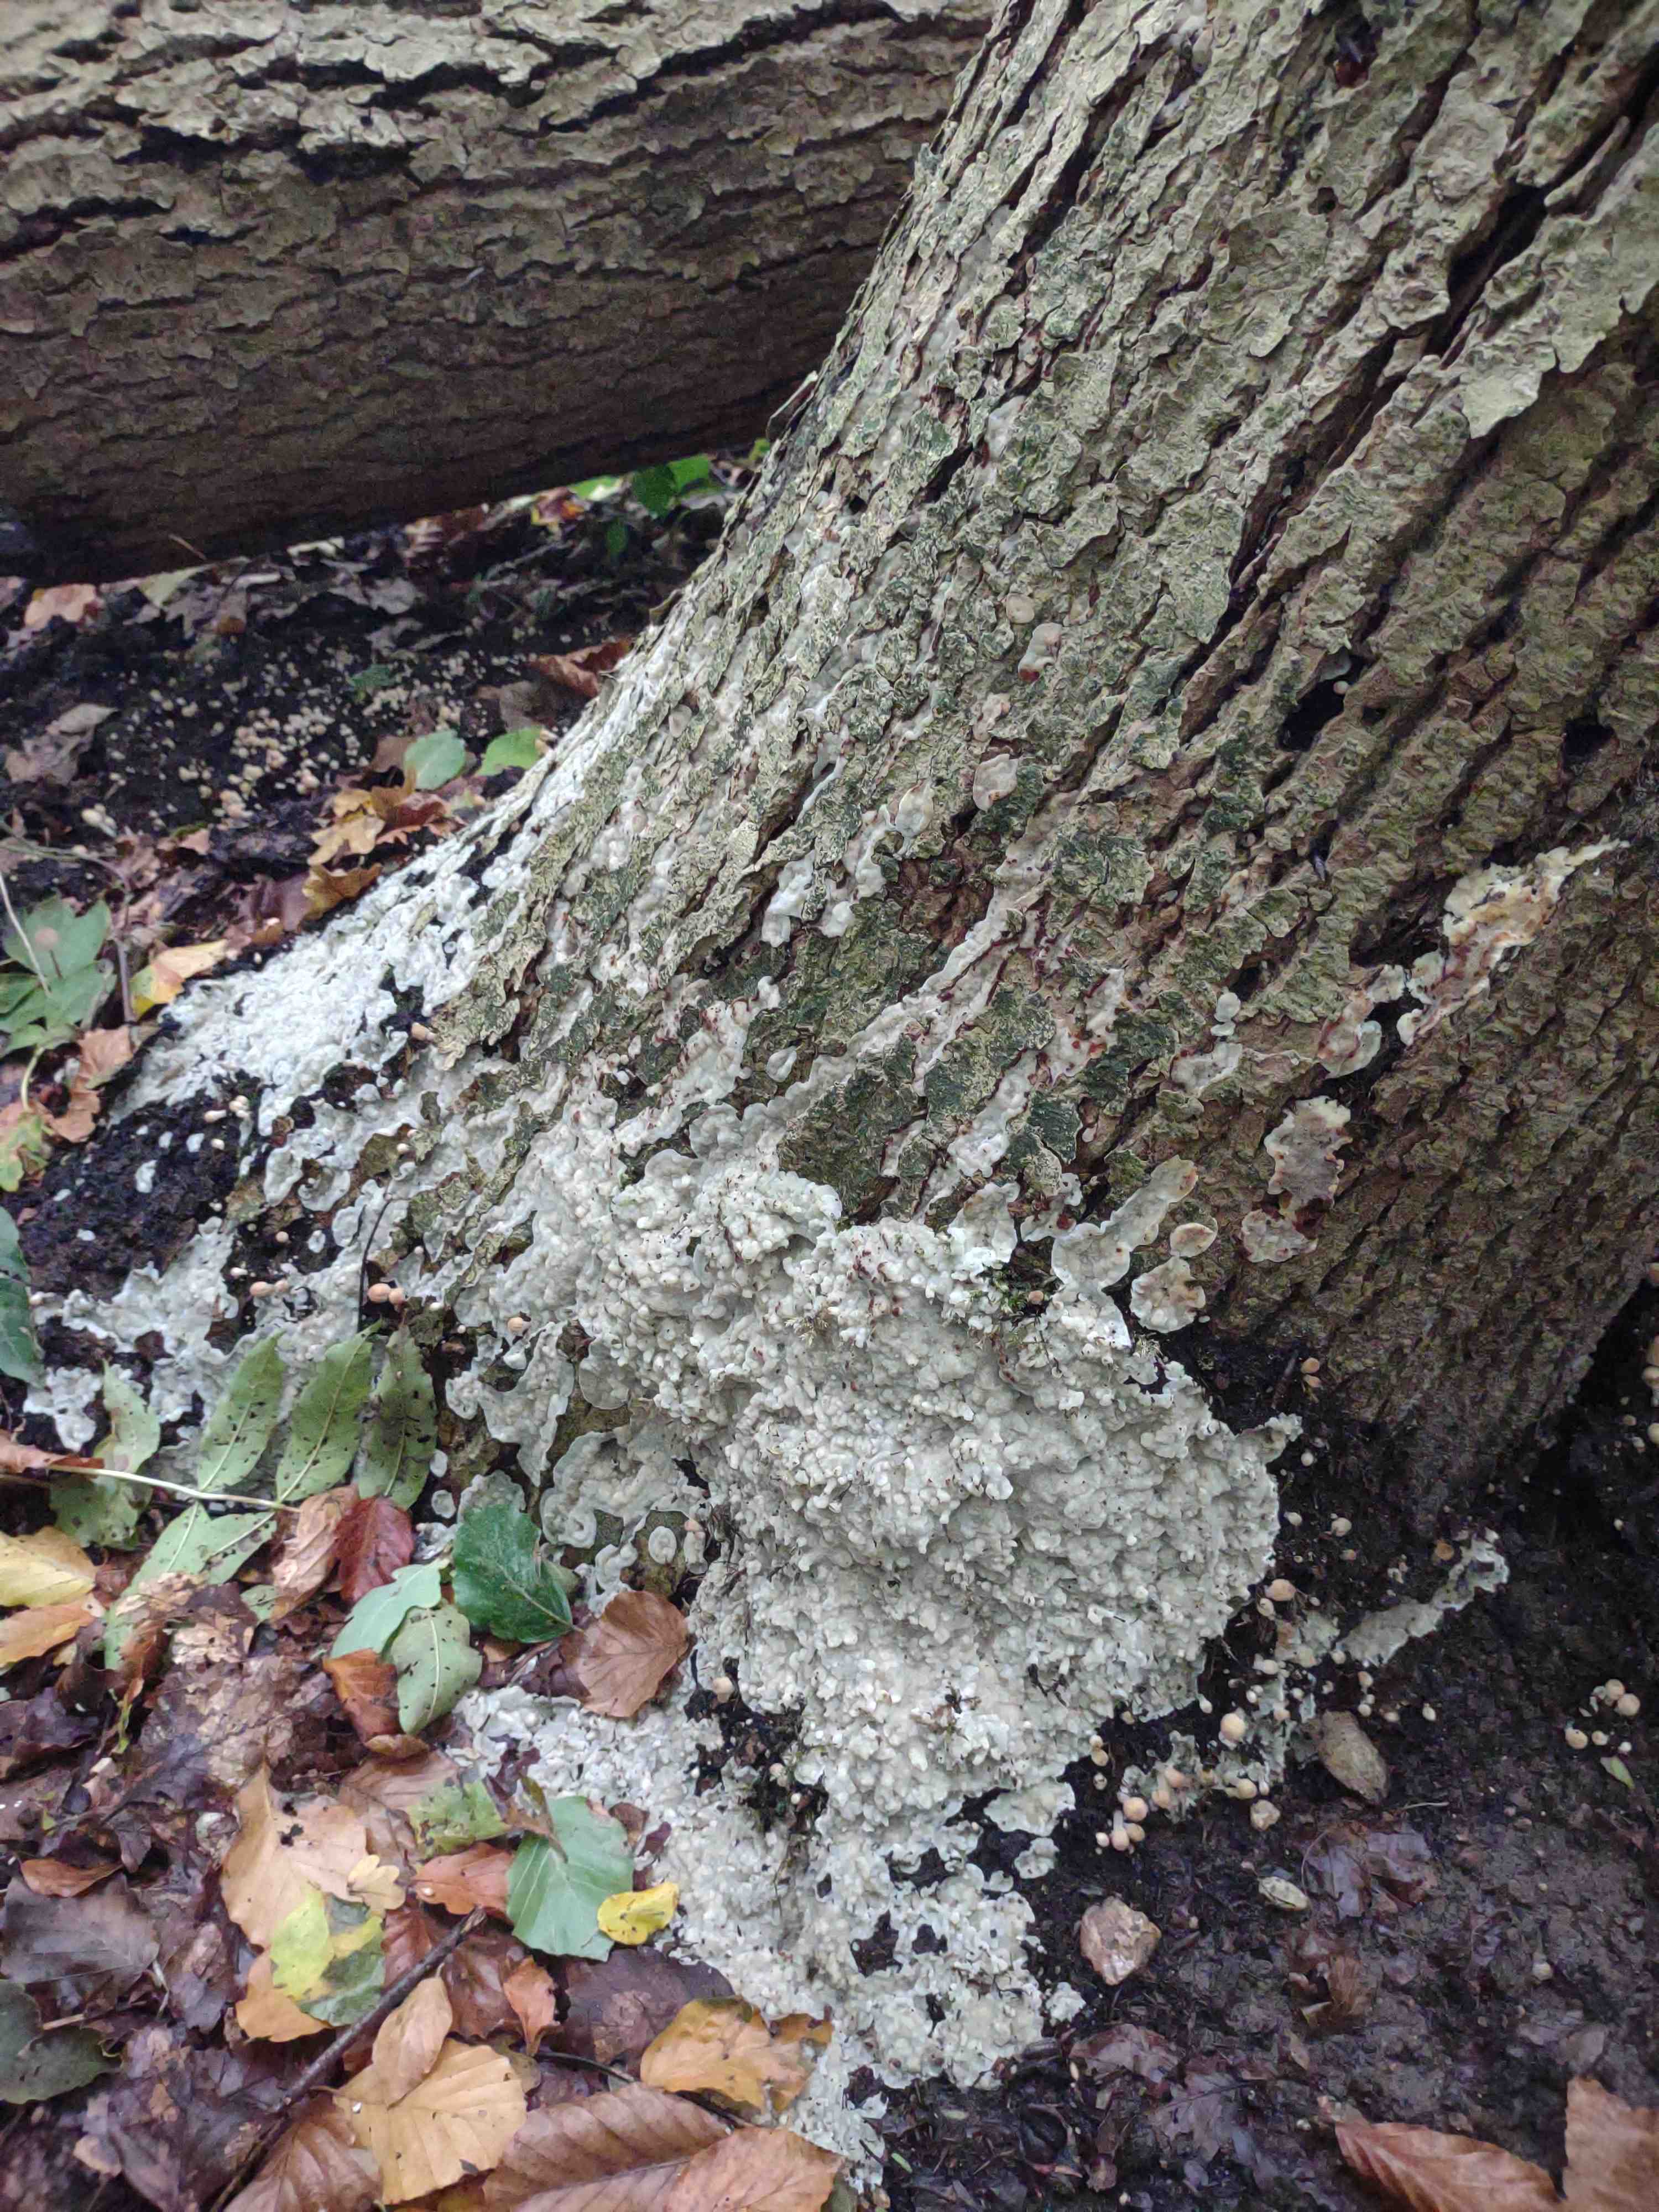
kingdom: Fungi
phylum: Basidiomycota
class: Agaricomycetes
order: Polyporales
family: Meruliaceae
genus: Physisporinus
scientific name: Physisporinus vitreus
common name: mastesvamp
